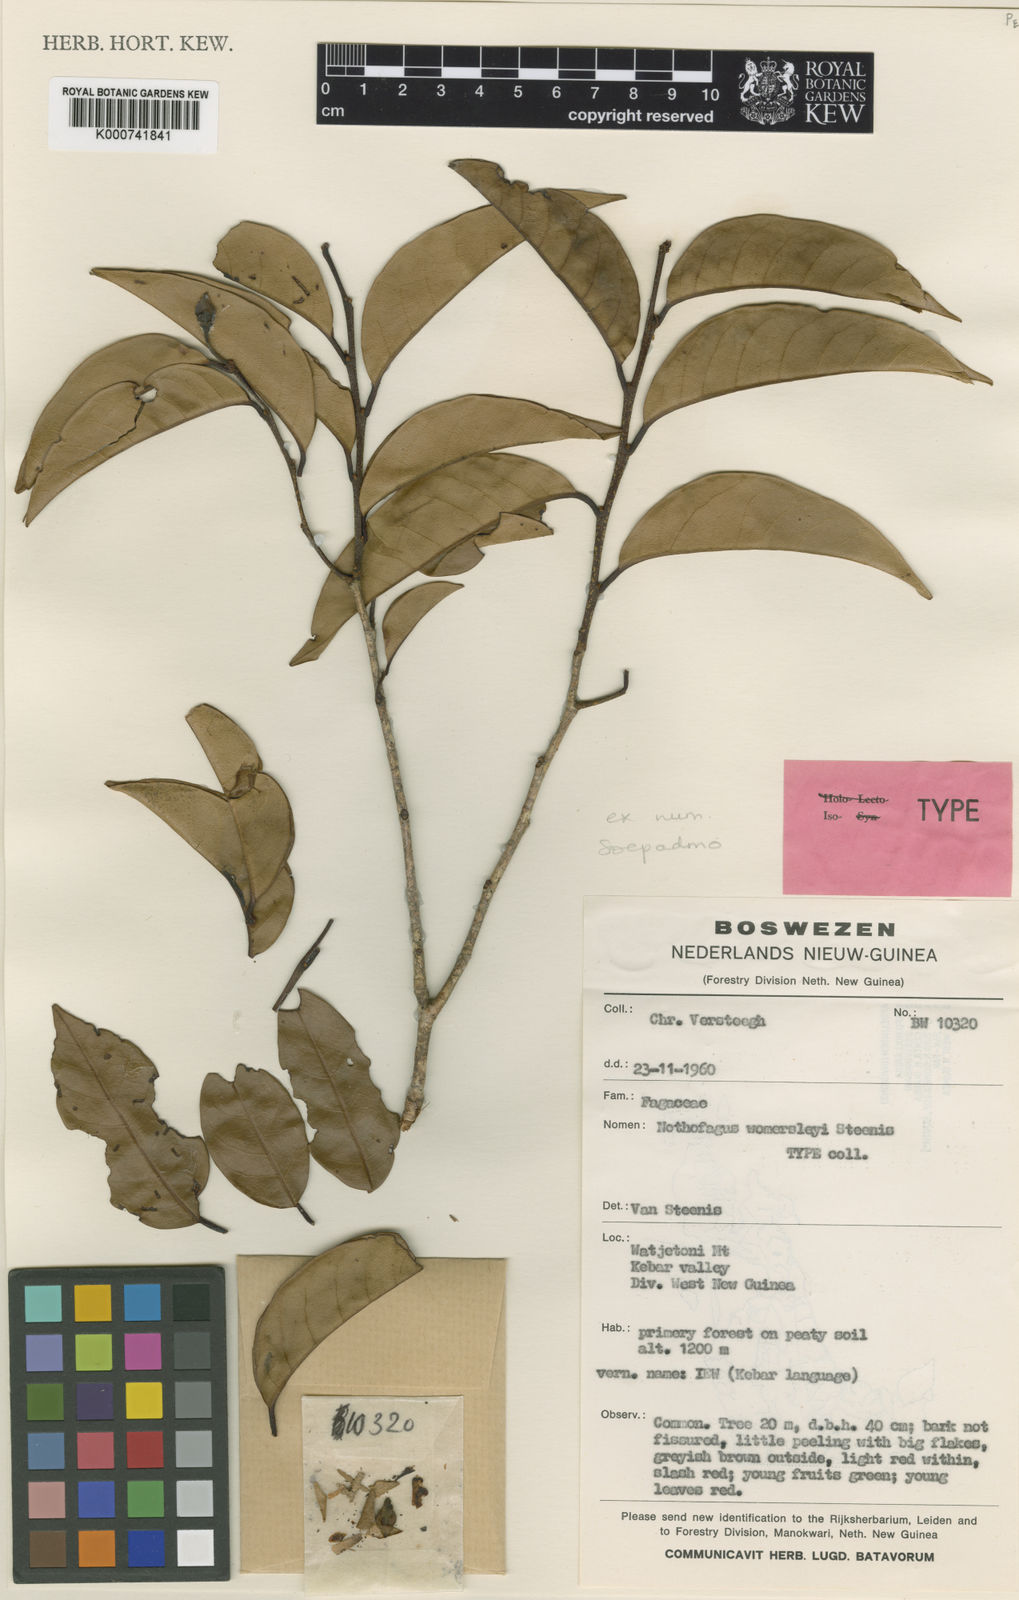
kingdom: Plantae
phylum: Tracheophyta
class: Magnoliopsida
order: Fagales
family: Nothofagaceae
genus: Nothofagus
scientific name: Nothofagus womersleyi
